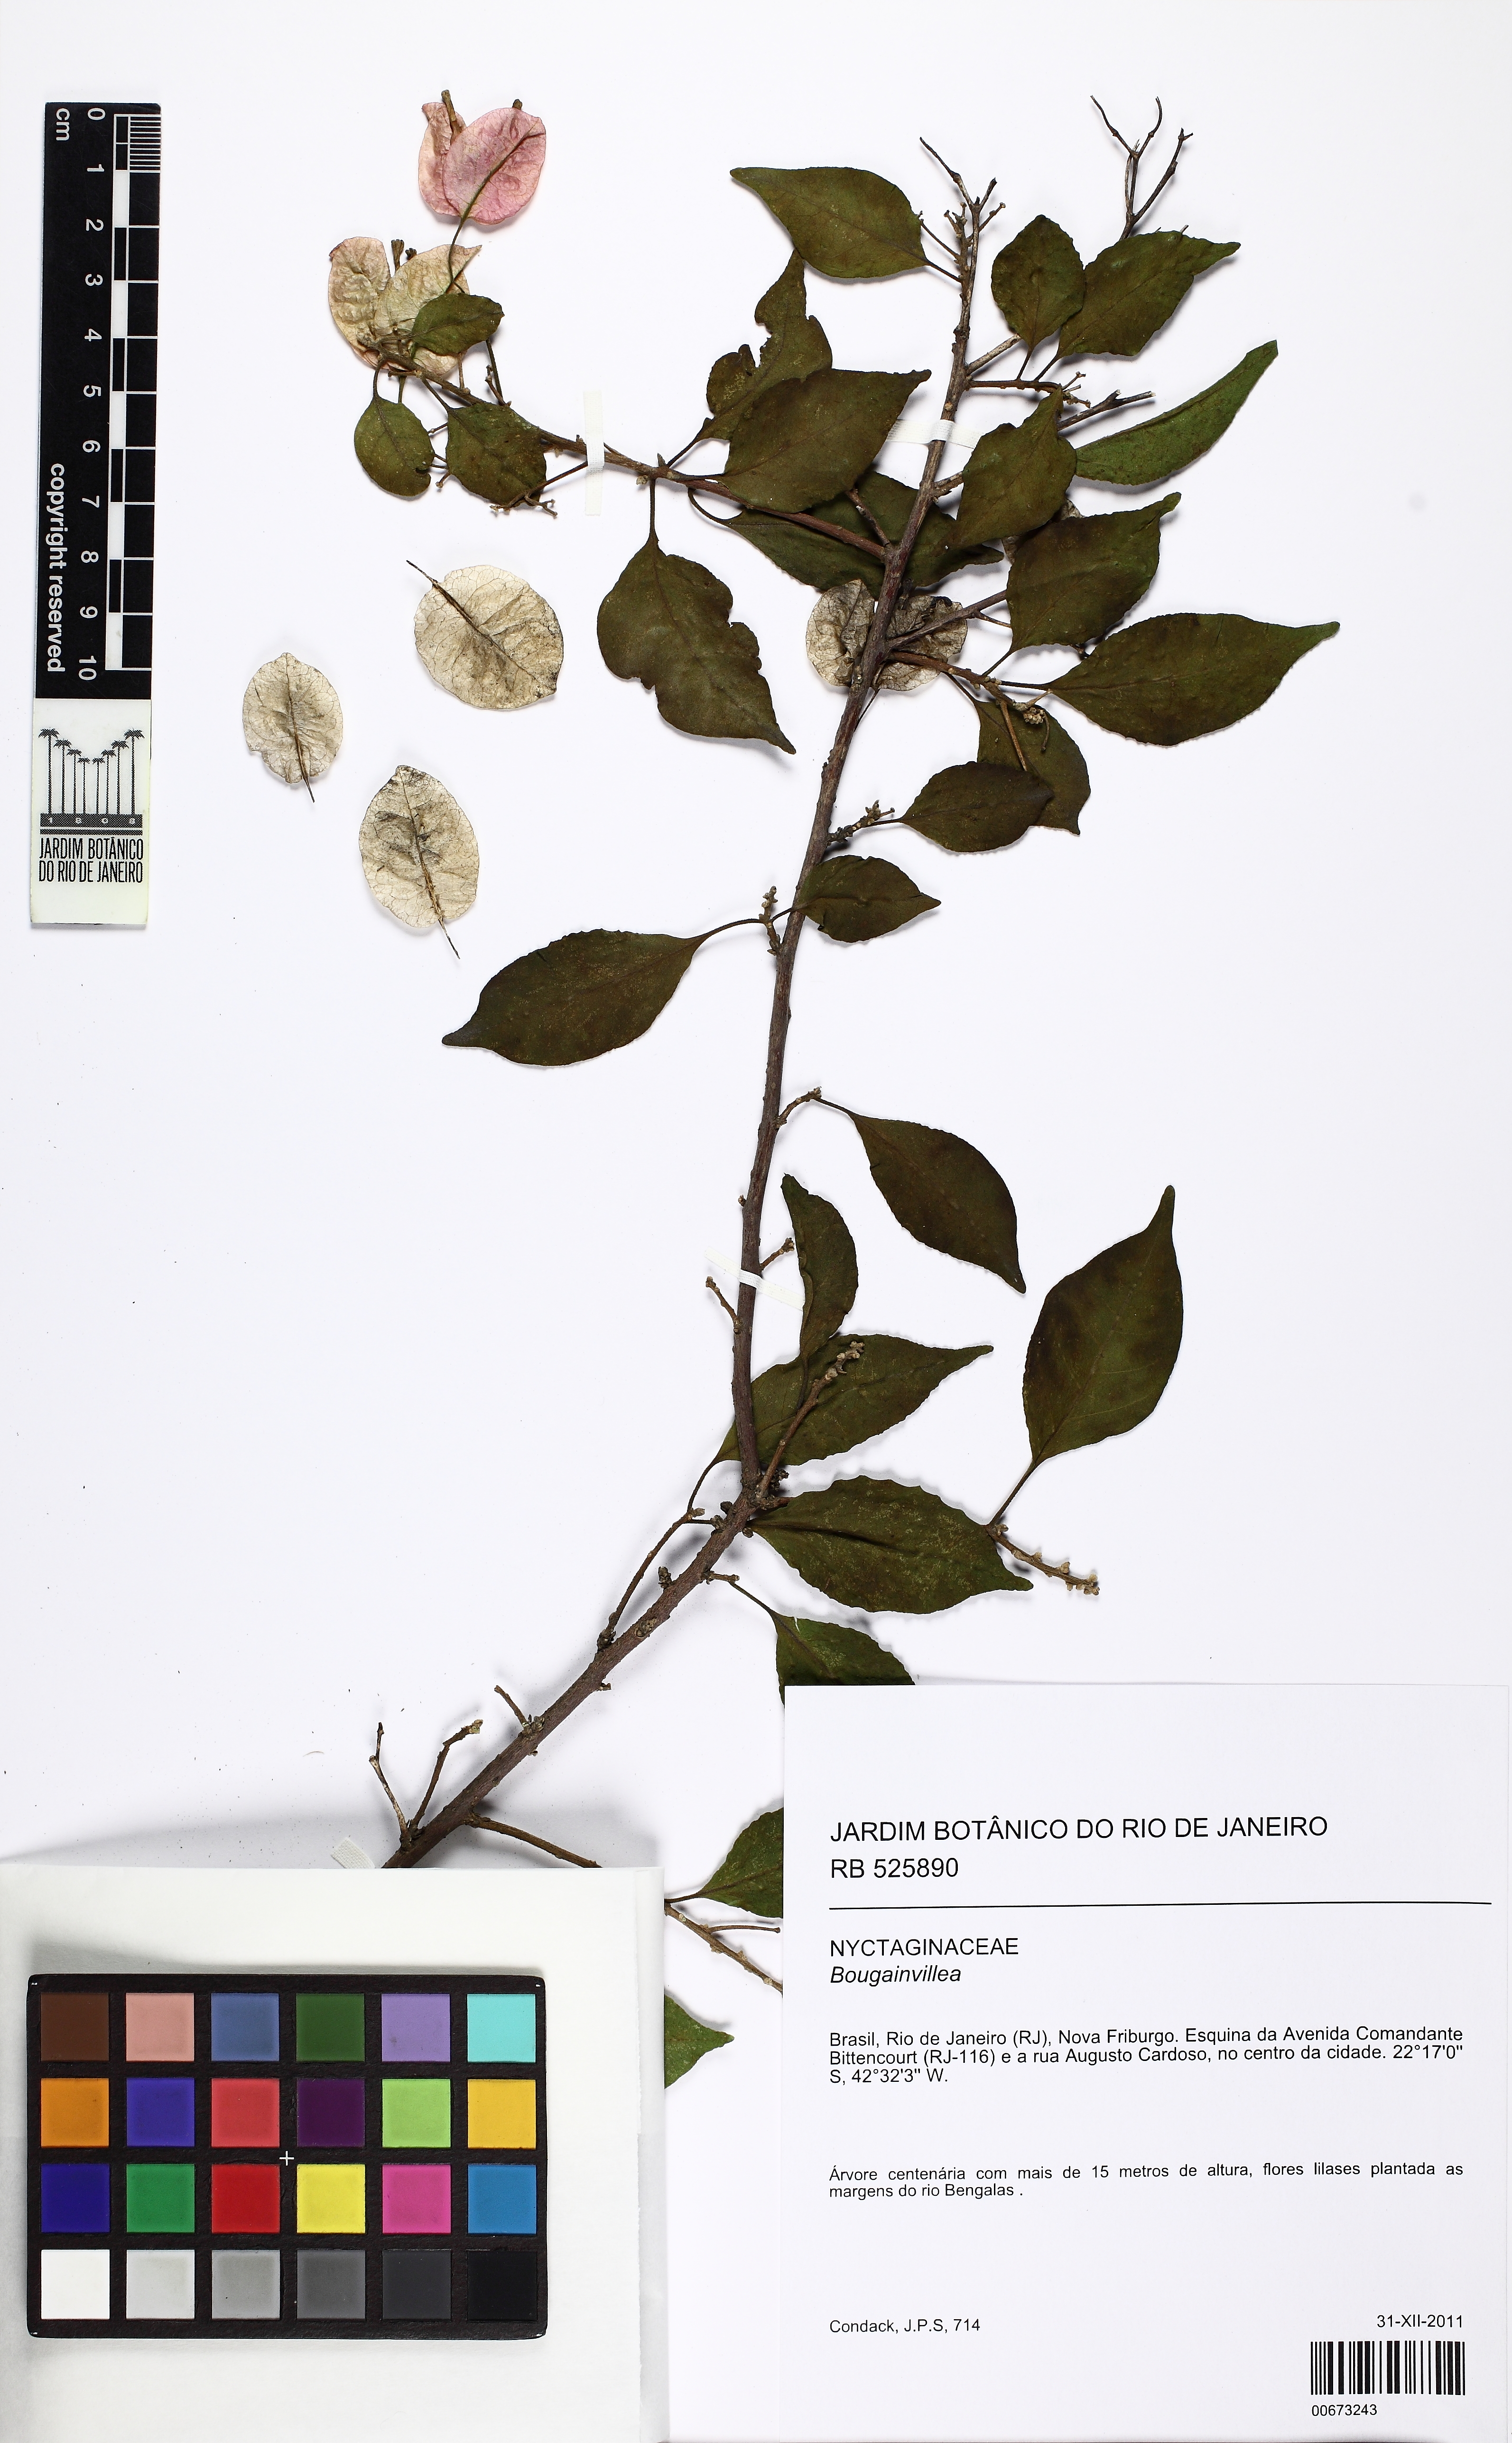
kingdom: Plantae
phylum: Tracheophyta
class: Magnoliopsida
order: Caryophyllales
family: Nyctaginaceae
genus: Bougainvillea
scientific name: Bougainvillea
